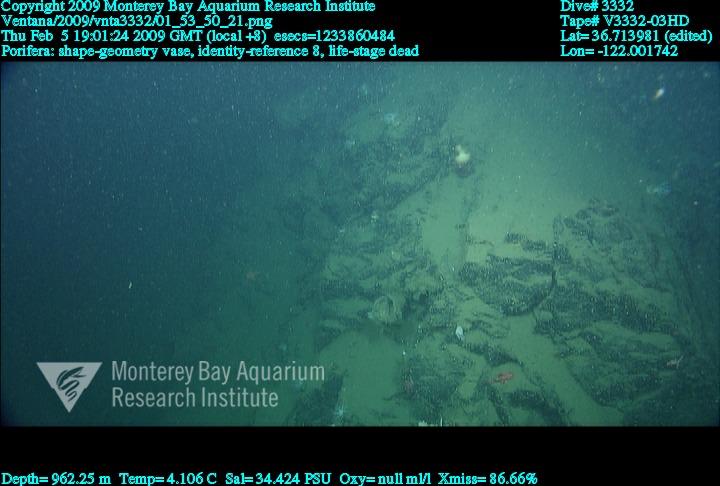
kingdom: Animalia
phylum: Porifera
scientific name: Porifera
